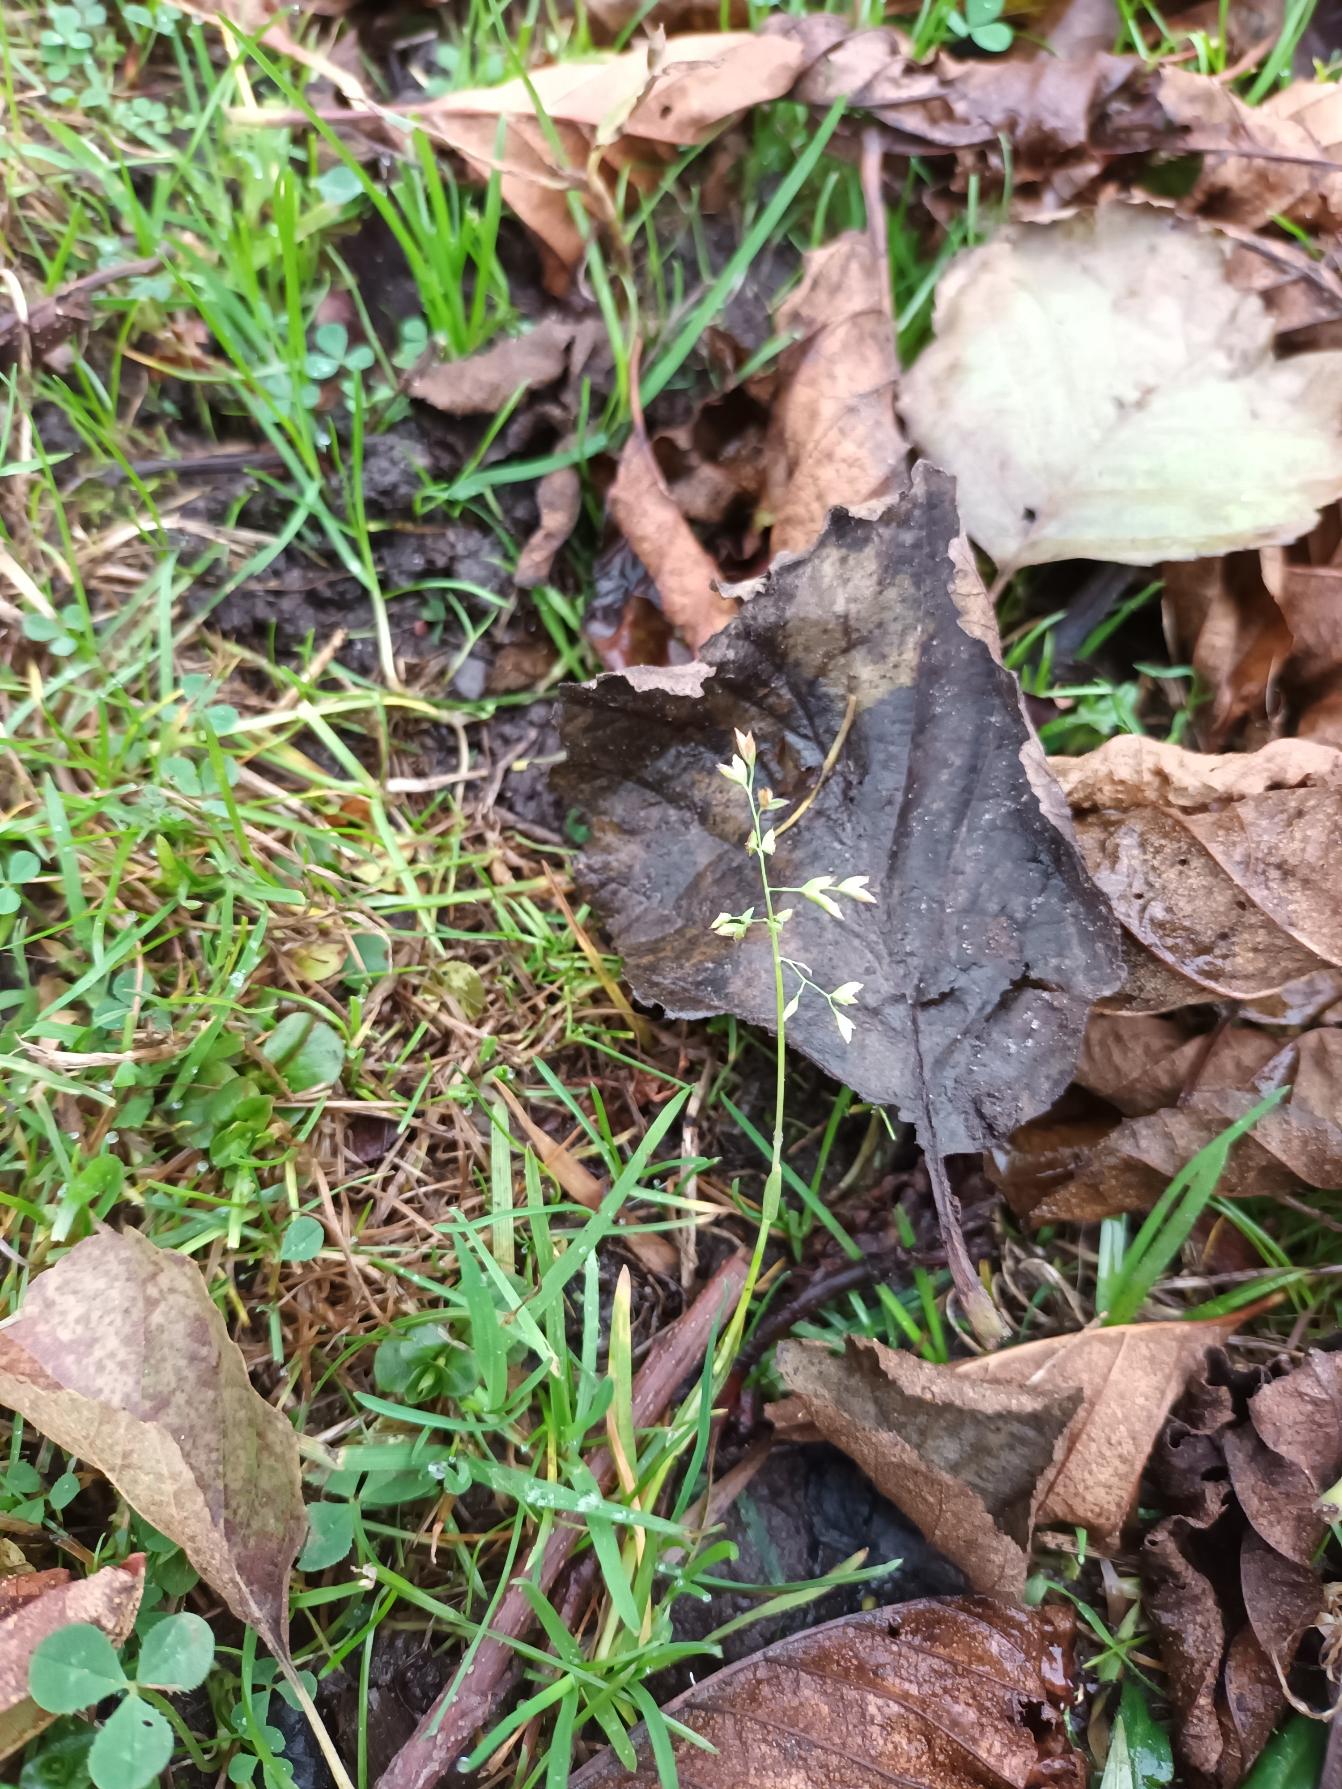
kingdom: Plantae
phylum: Tracheophyta
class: Liliopsida
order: Poales
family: Poaceae
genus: Poa
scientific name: Poa annua
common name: Enårig rapgræs
